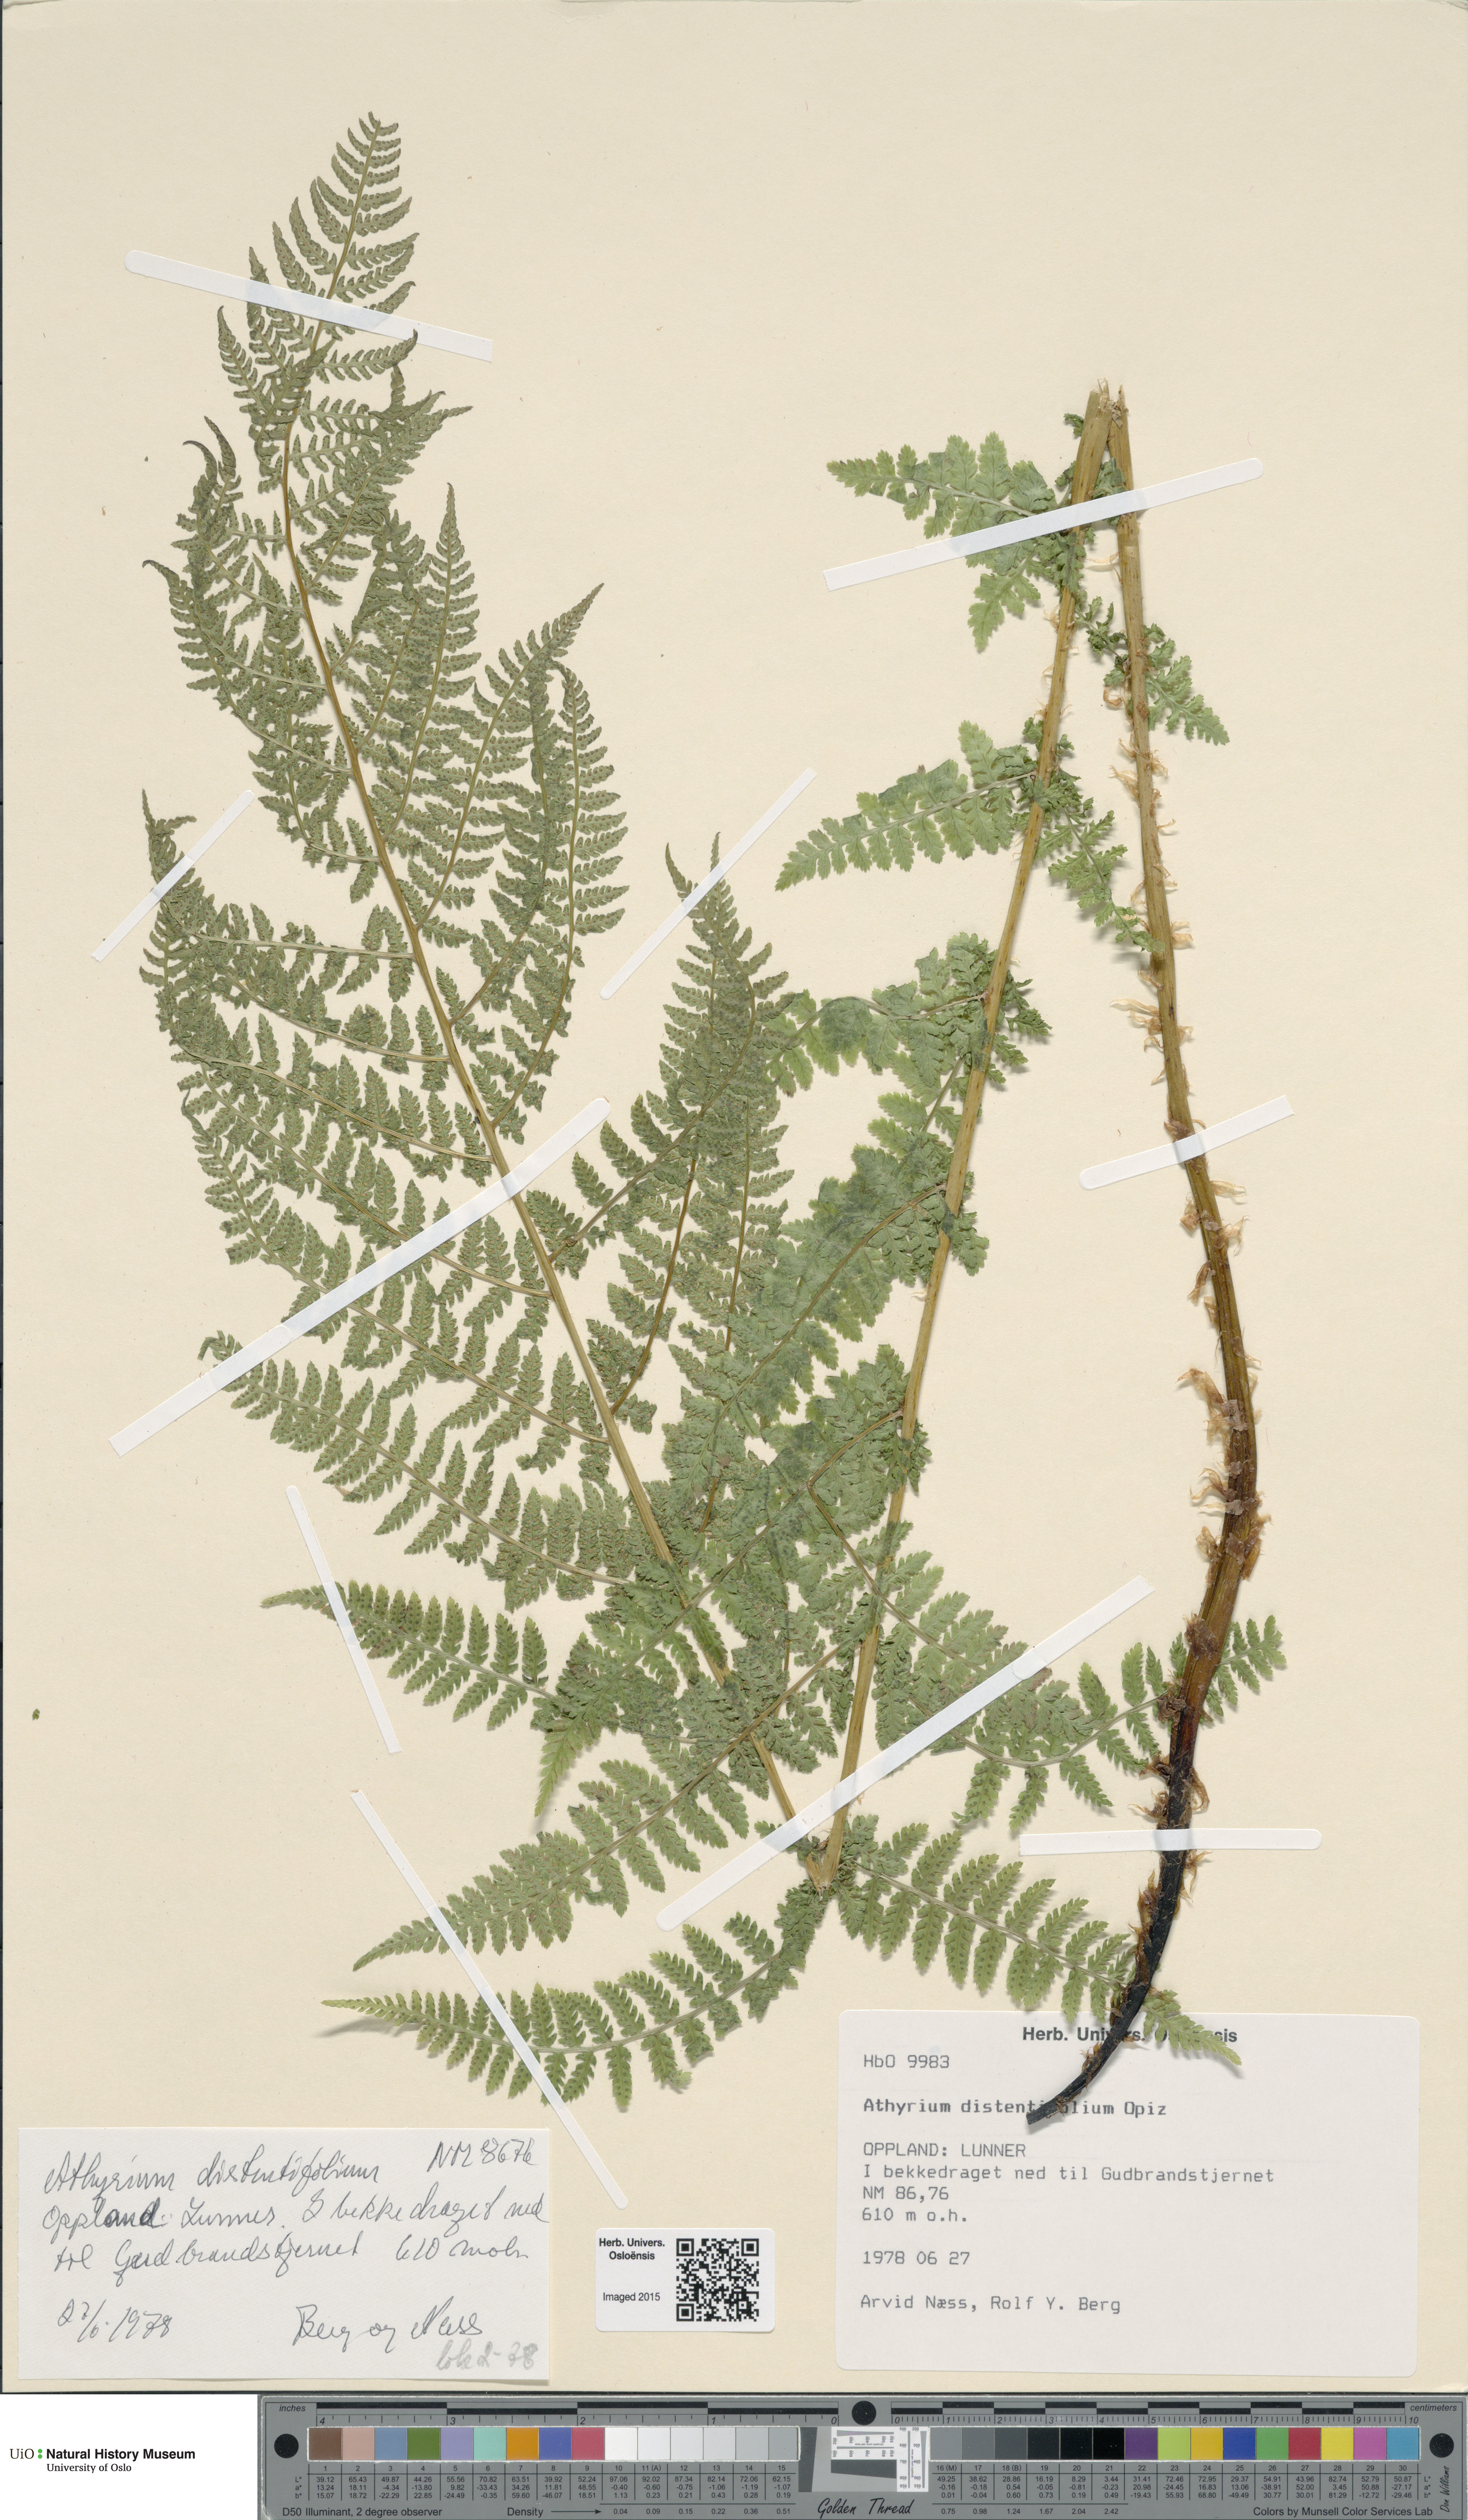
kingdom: Plantae
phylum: Tracheophyta
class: Polypodiopsida
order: Polypodiales
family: Athyriaceae
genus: Pseudathyrium
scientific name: Pseudathyrium alpestre
